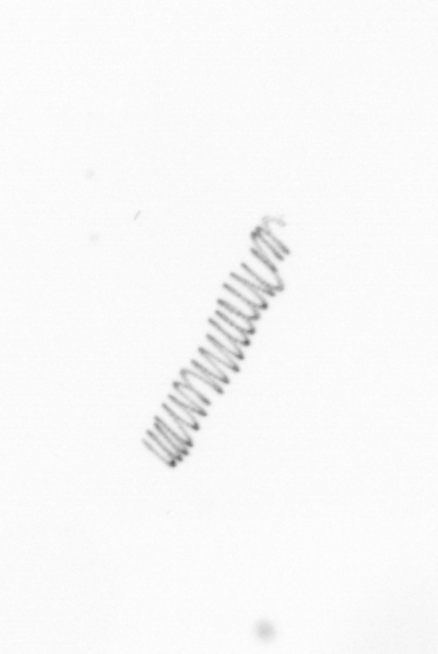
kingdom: Chromista
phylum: Ochrophyta
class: Bacillariophyceae
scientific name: Bacillariophyceae
